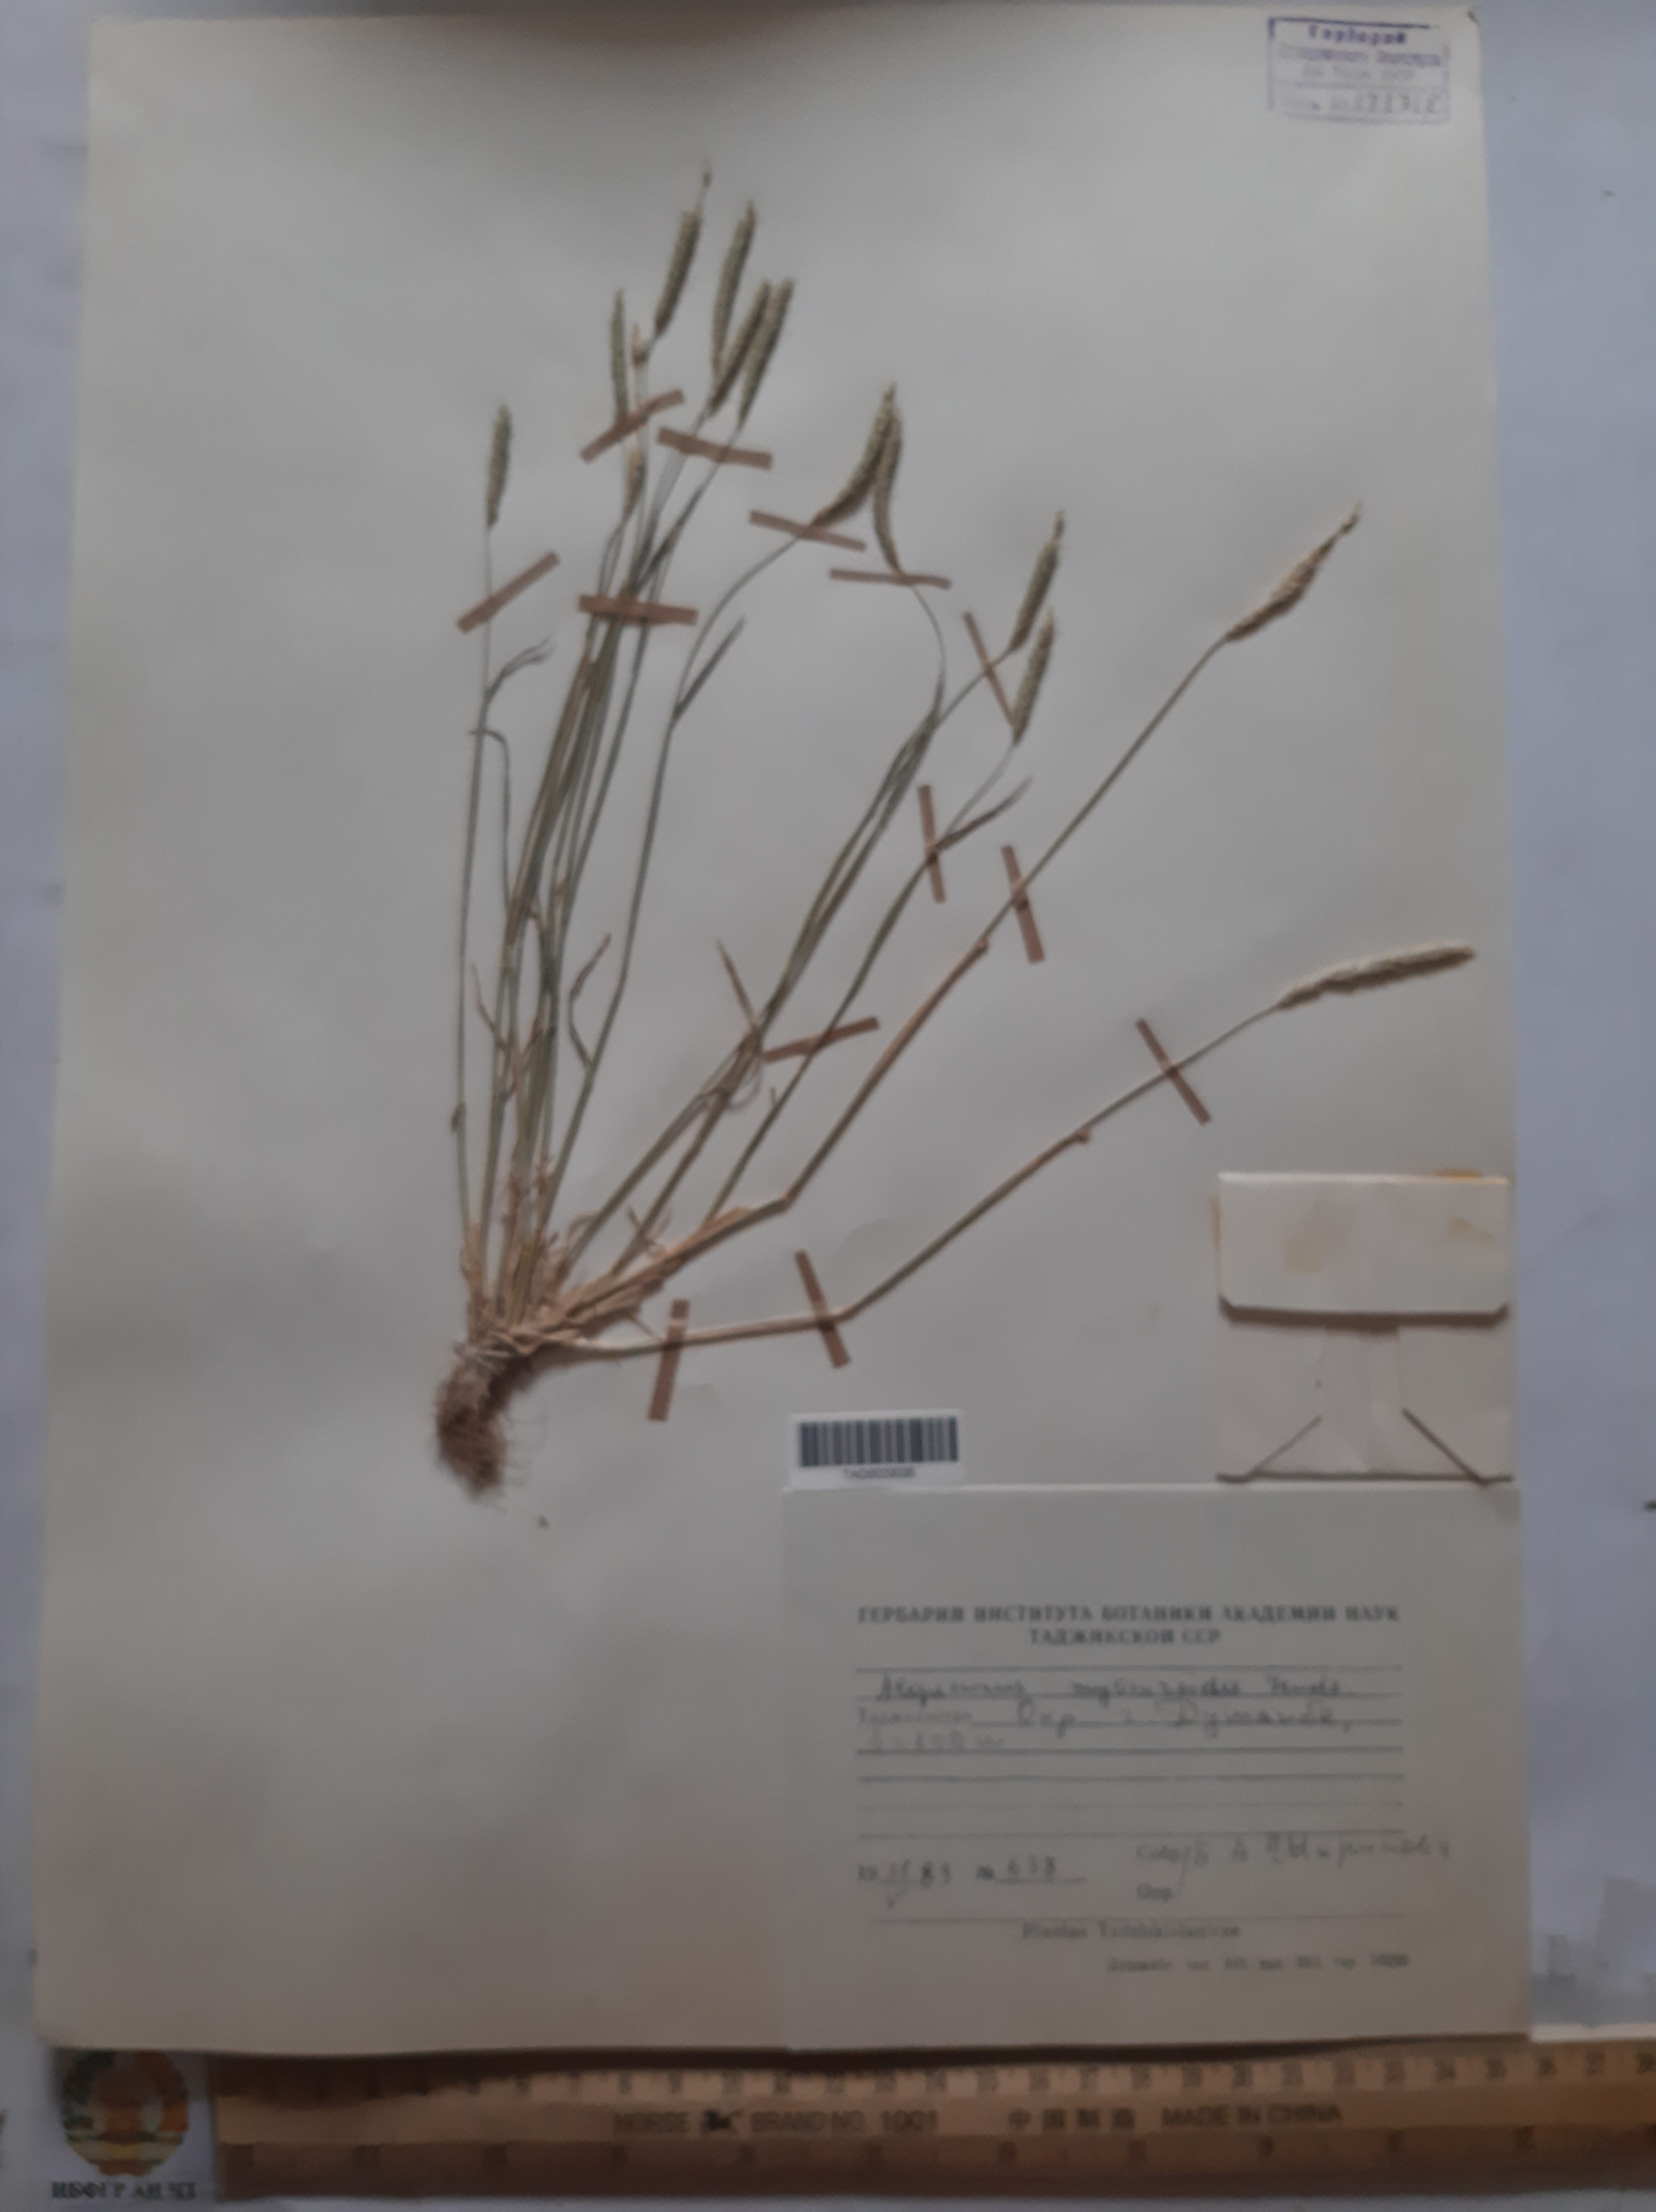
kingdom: Plantae
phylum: Tracheophyta
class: Liliopsida
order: Poales
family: Poaceae
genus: Alopecurus
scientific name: Alopecurus mucronatus
